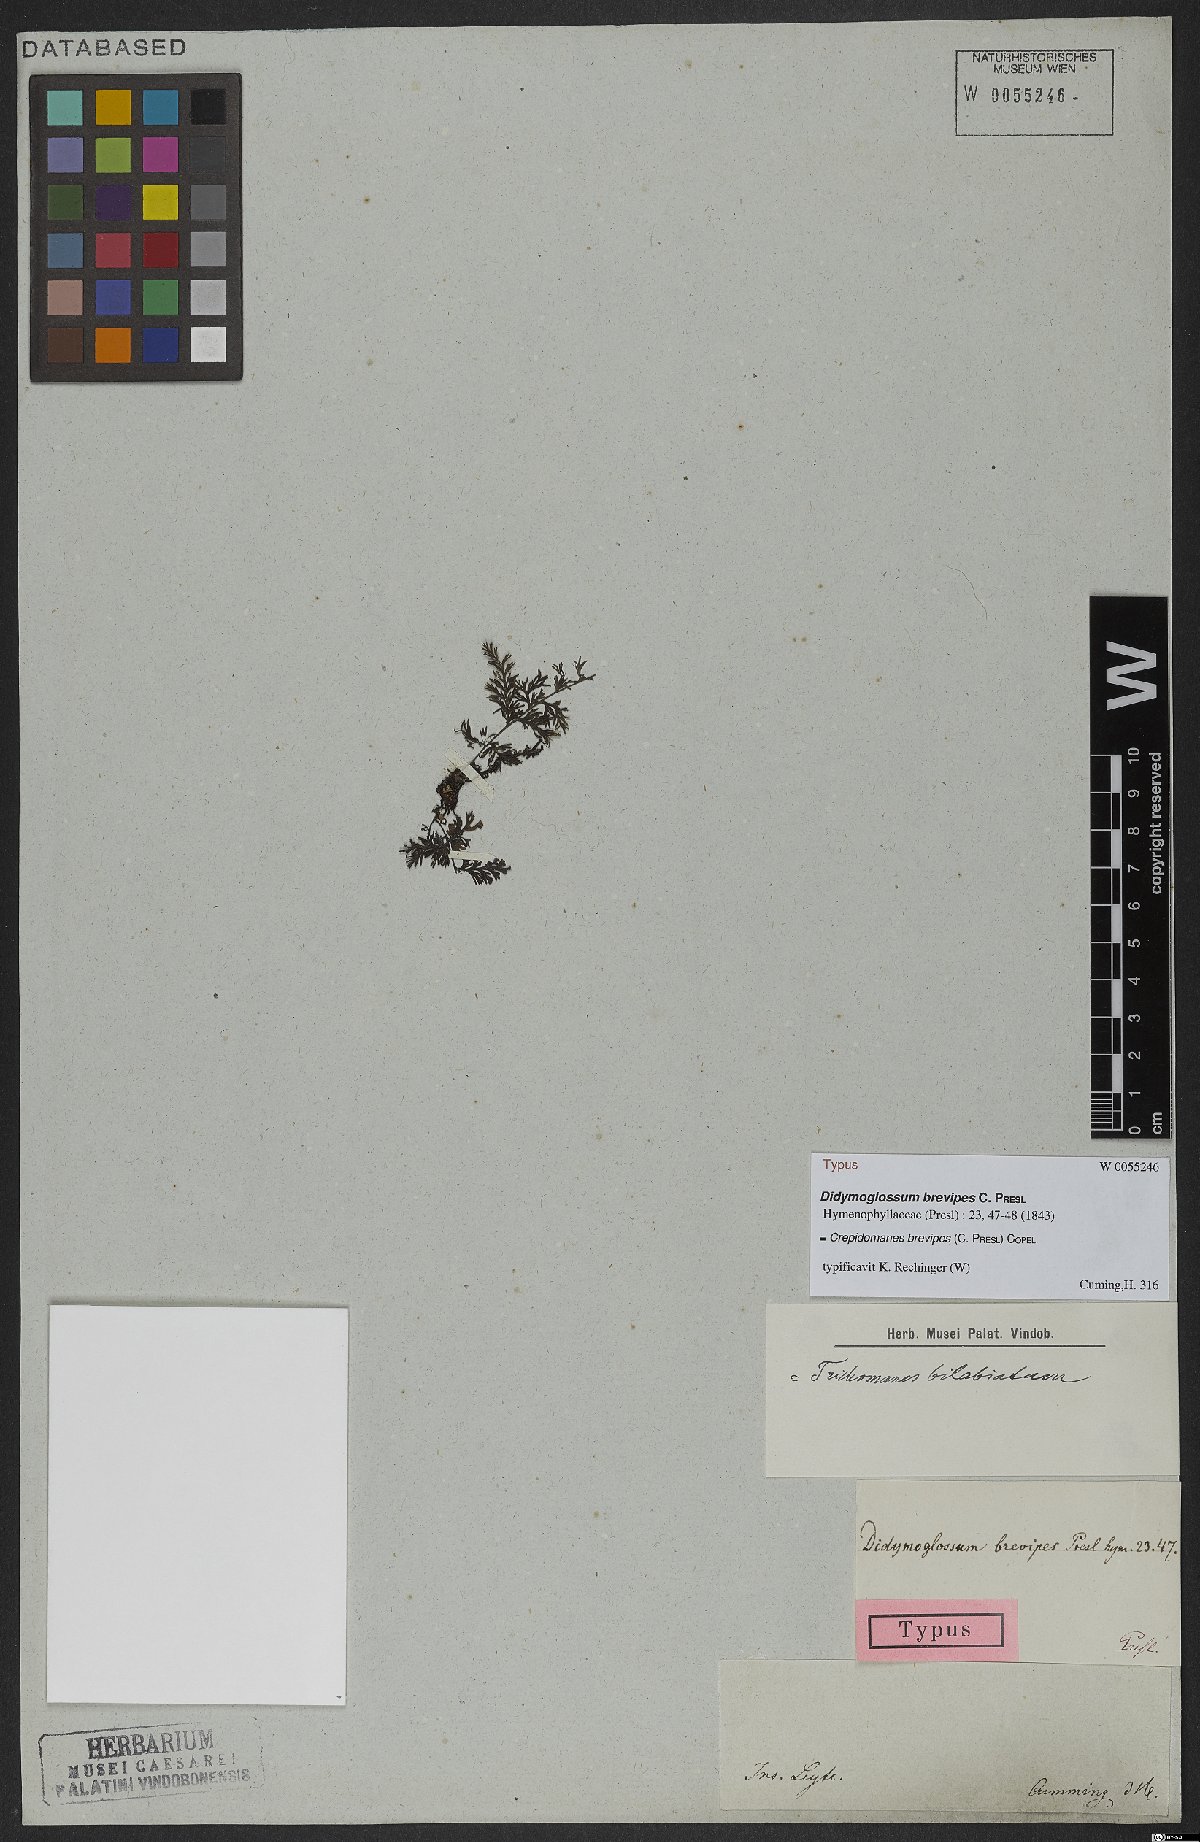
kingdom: Plantae
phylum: Tracheophyta
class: Polypodiopsida
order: Hymenophyllales
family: Hymenophyllaceae
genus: Crepidomanes
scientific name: Crepidomanes brevipes
